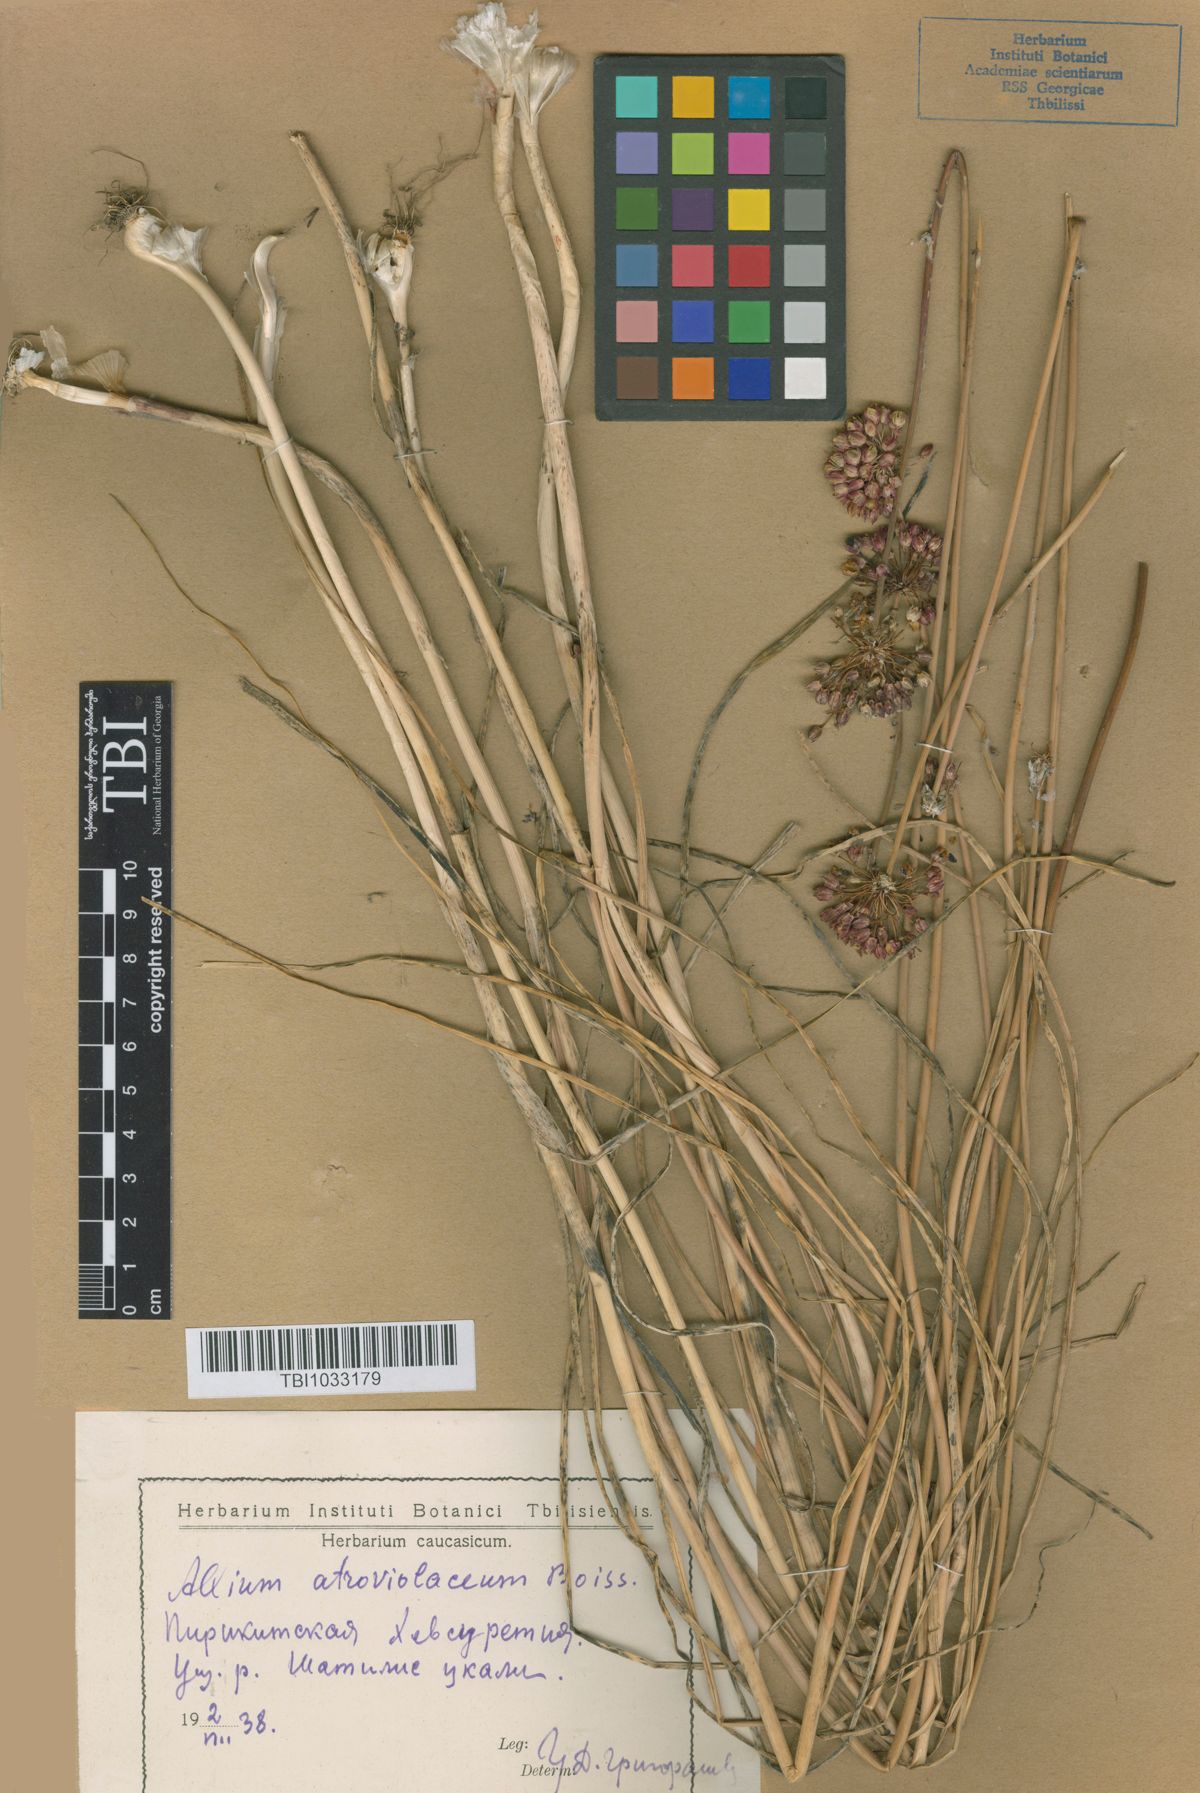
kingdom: Plantae
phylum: Tracheophyta
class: Liliopsida
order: Asparagales
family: Amaryllidaceae
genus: Allium
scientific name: Allium atroviolaceum
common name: Broadleaf wild leek
